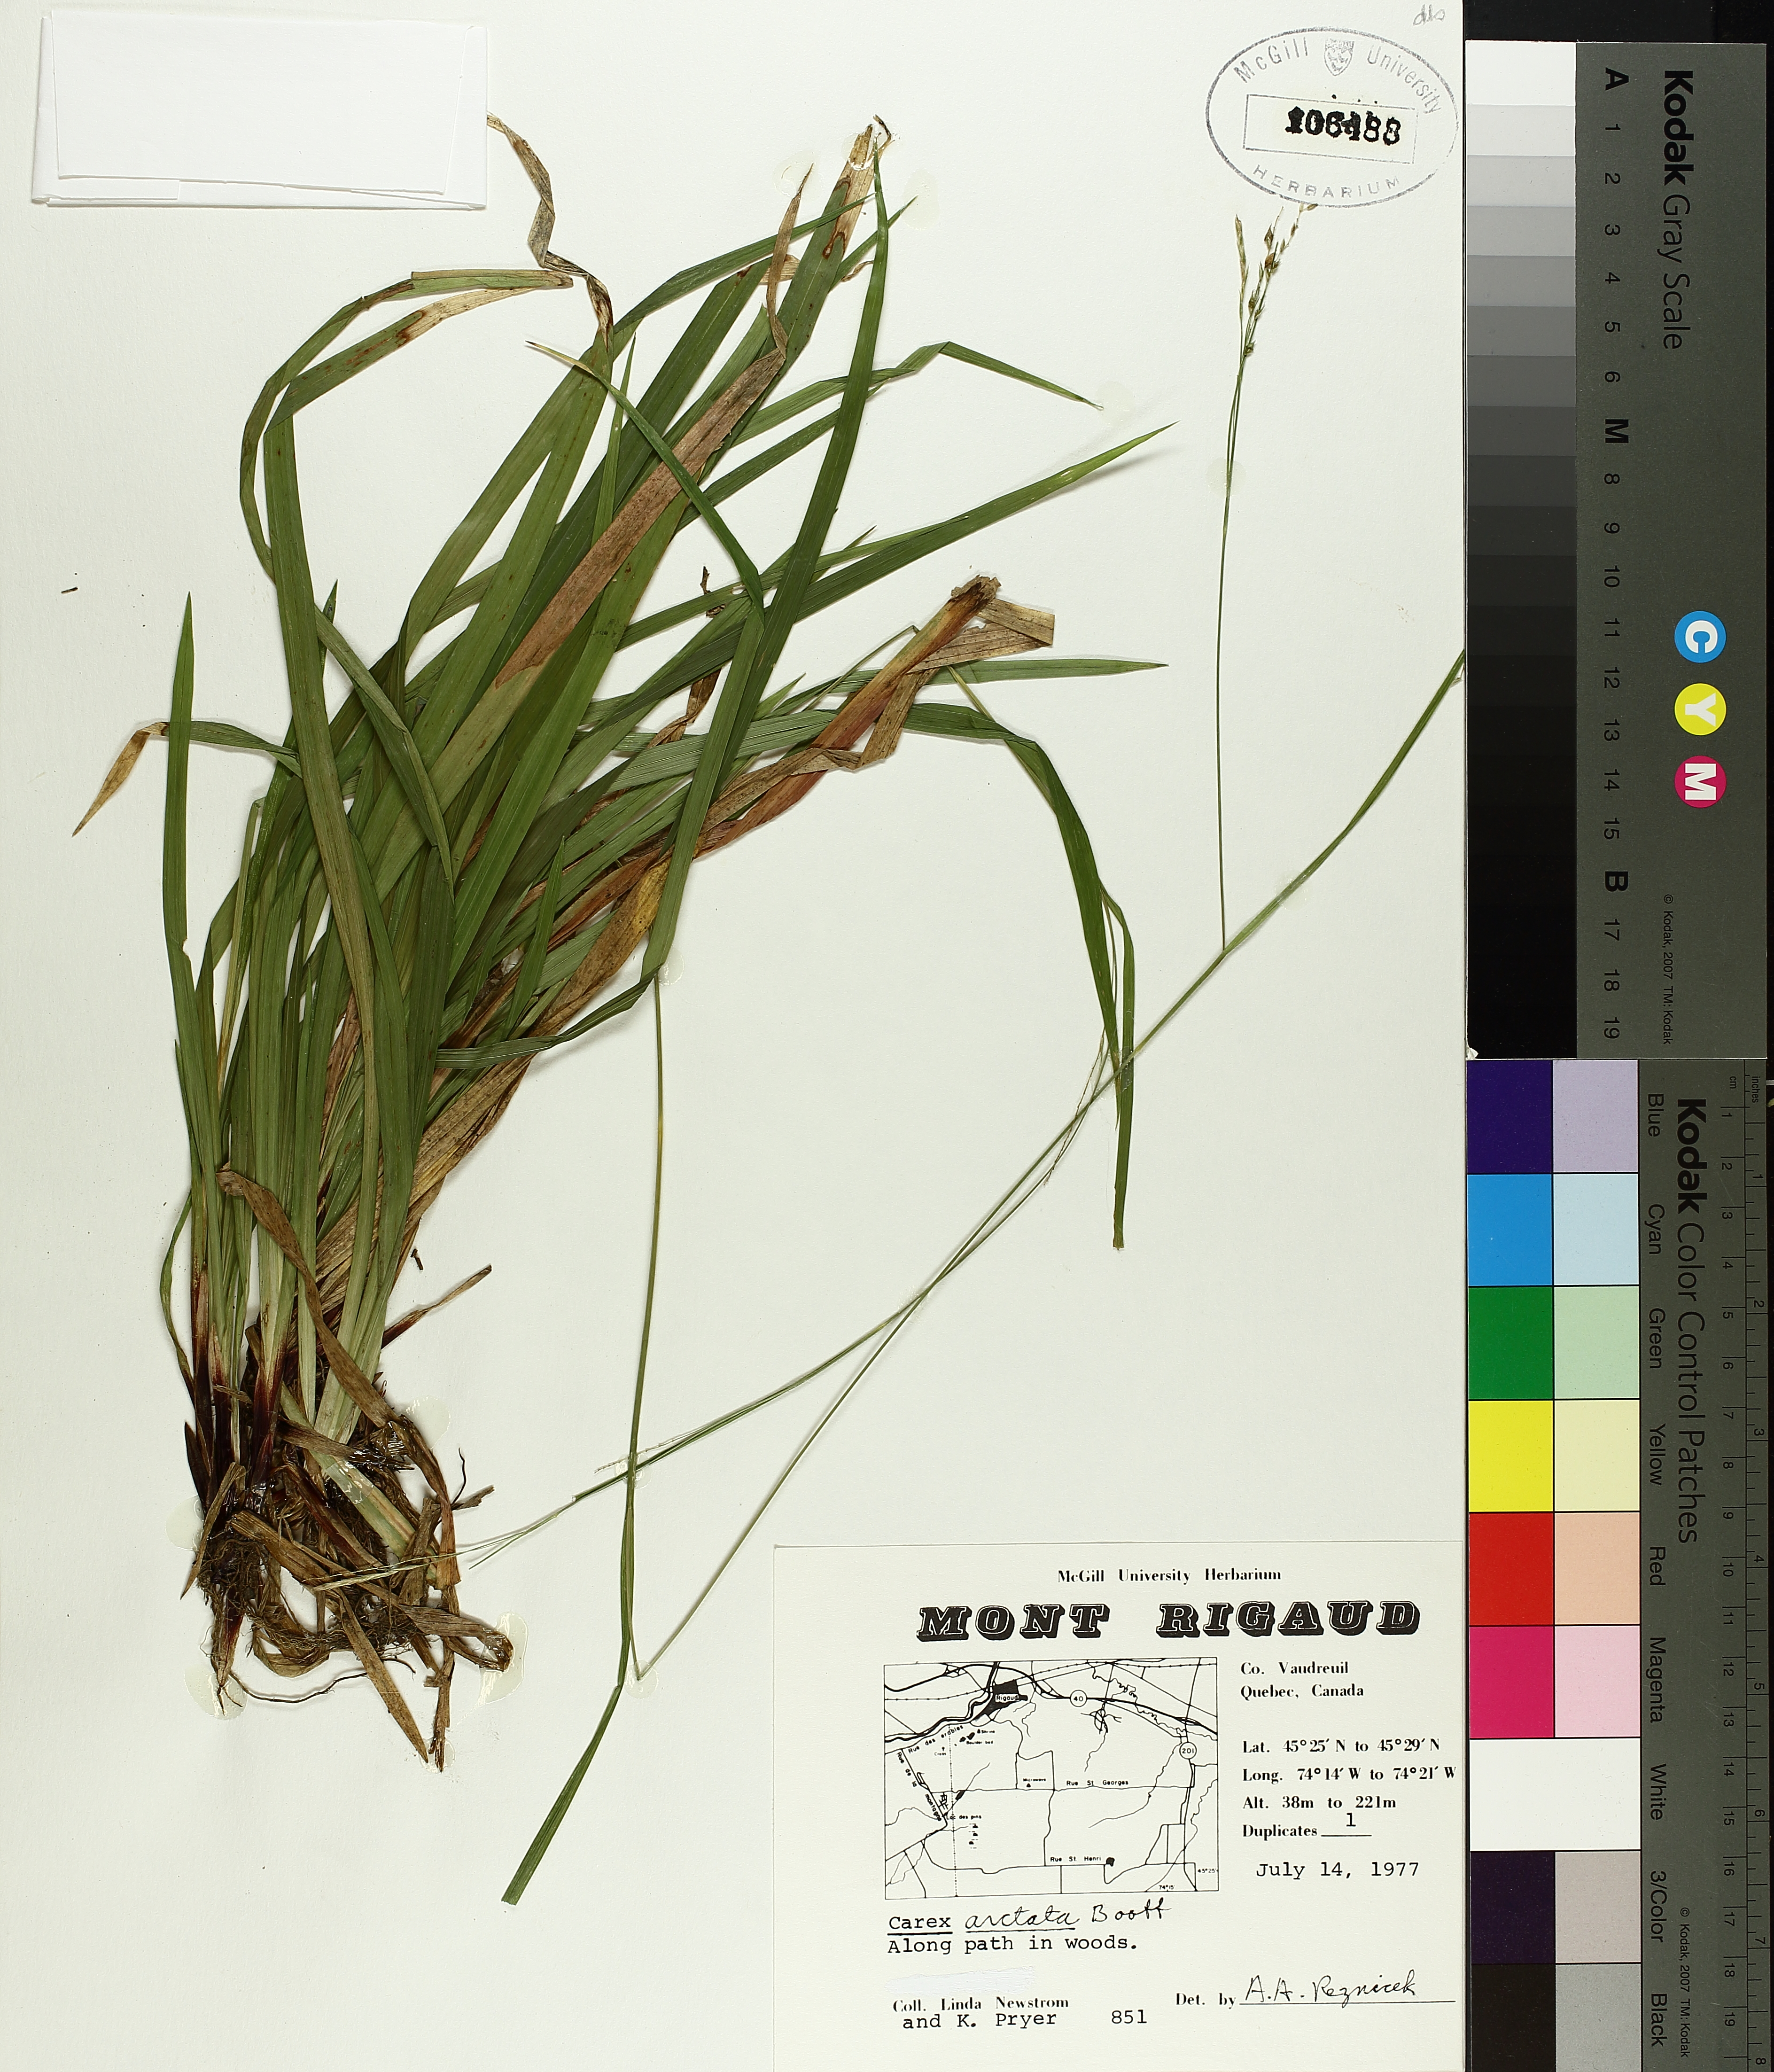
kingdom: Plantae
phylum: Tracheophyta
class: Liliopsida
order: Poales
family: Cyperaceae
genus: Carex
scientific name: Carex arctata
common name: Black sedge
